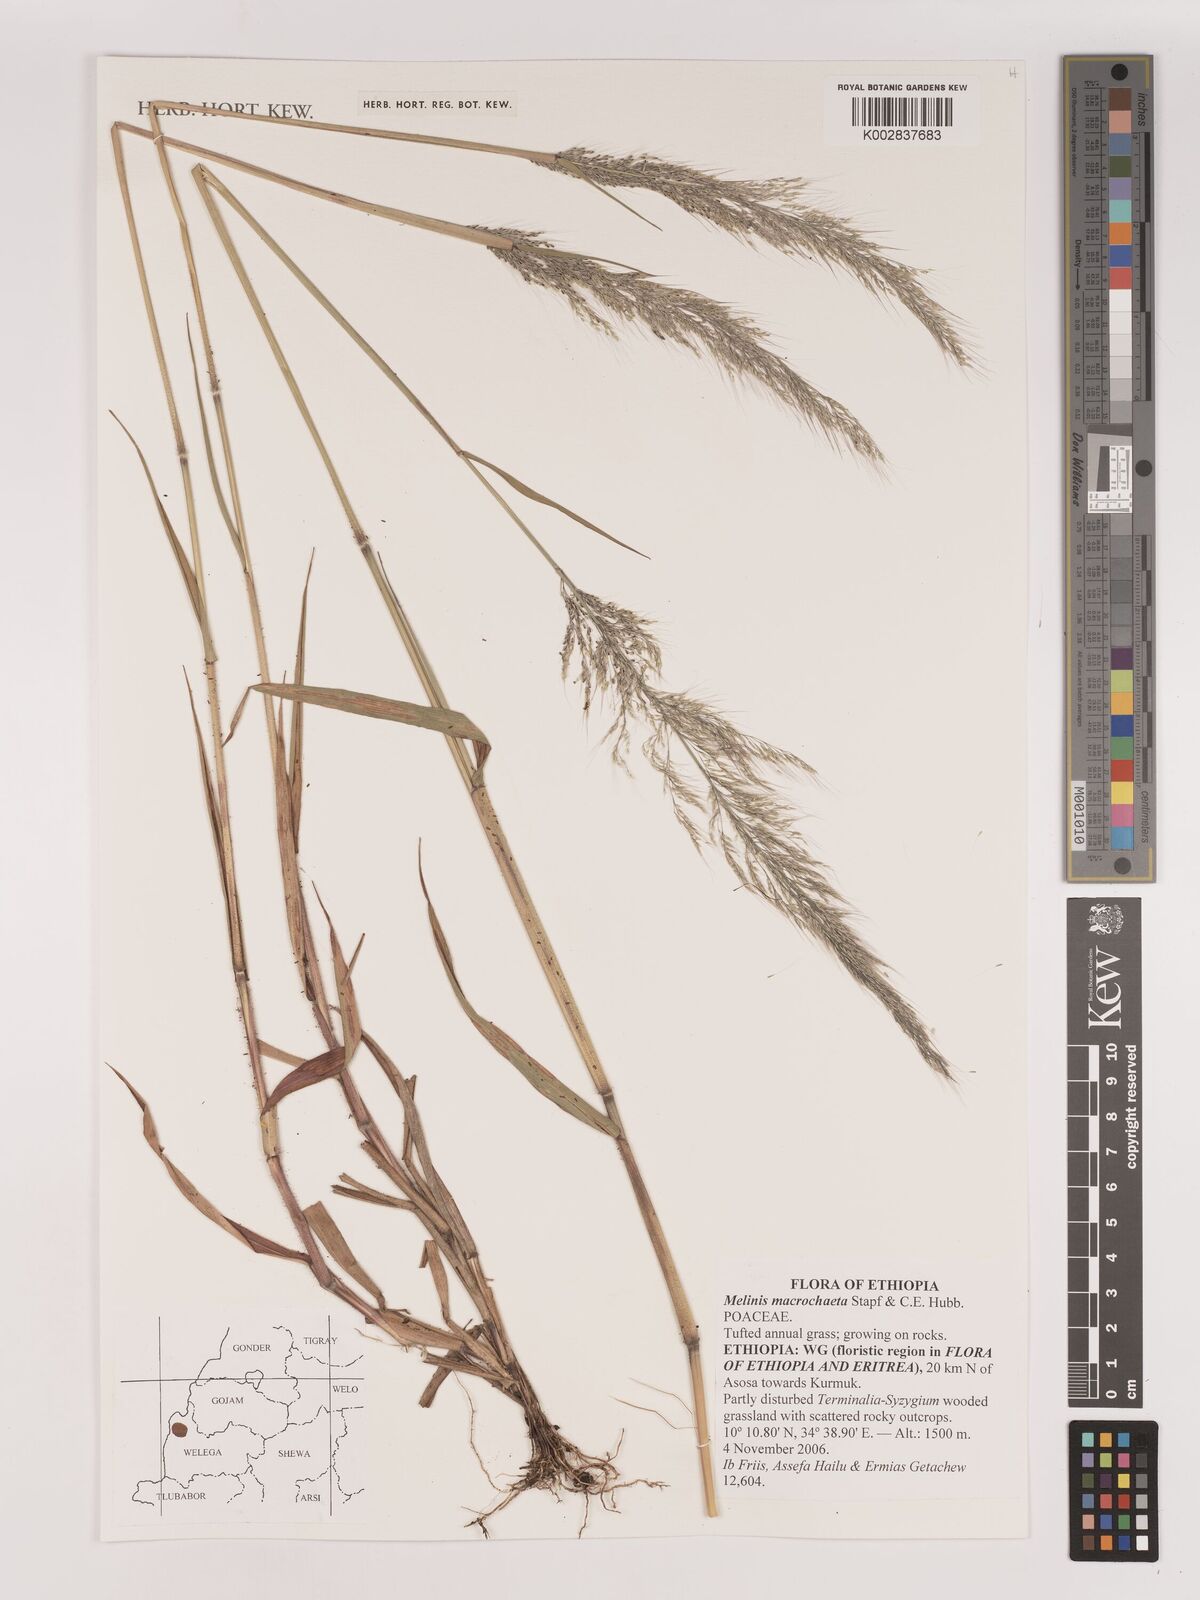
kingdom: Plantae
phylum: Tracheophyta
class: Liliopsida
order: Poales
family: Poaceae
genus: Melinis
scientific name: Melinis macrochaeta
